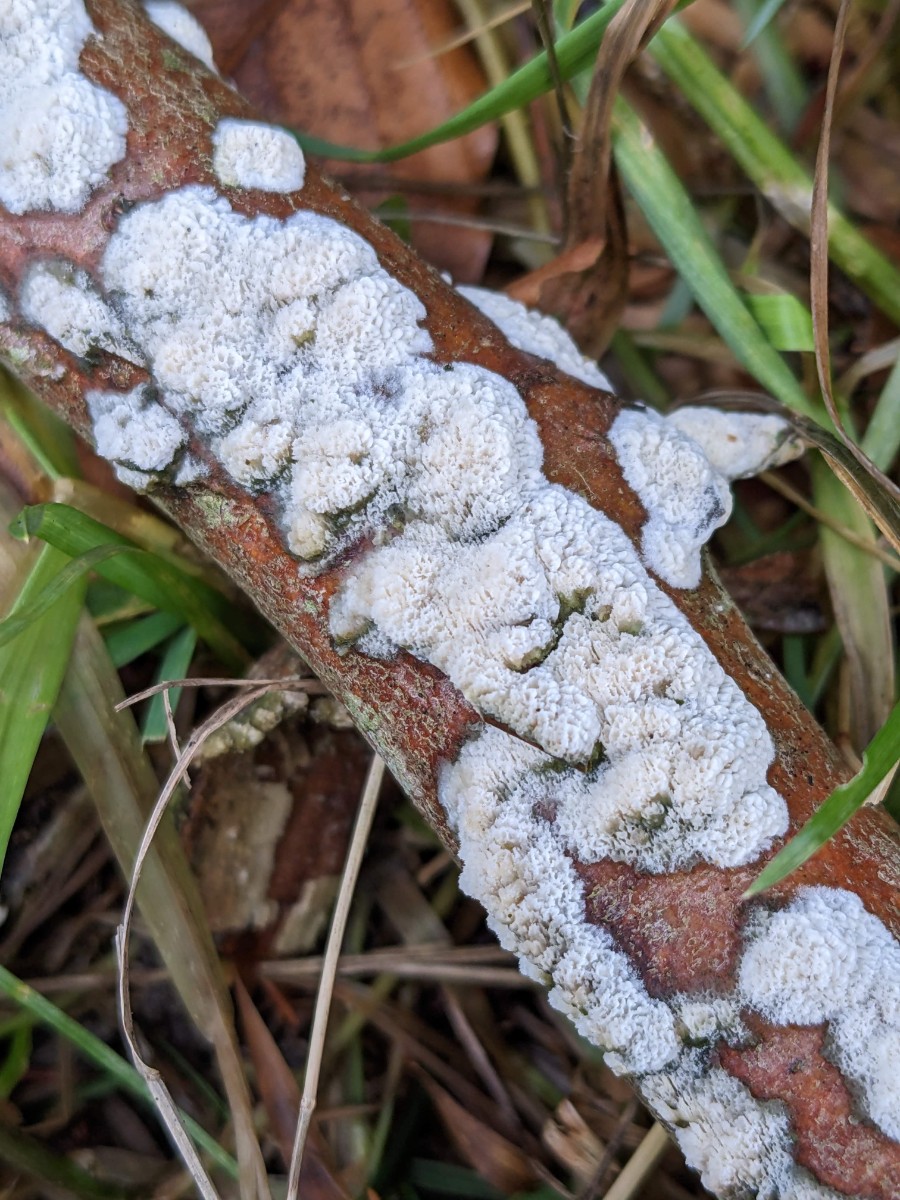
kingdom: Fungi
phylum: Basidiomycota
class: Agaricomycetes
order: Hymenochaetales
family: Schizoporaceae
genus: Schizopora
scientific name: Schizopora paradoxa
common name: hvid tandsvamp
